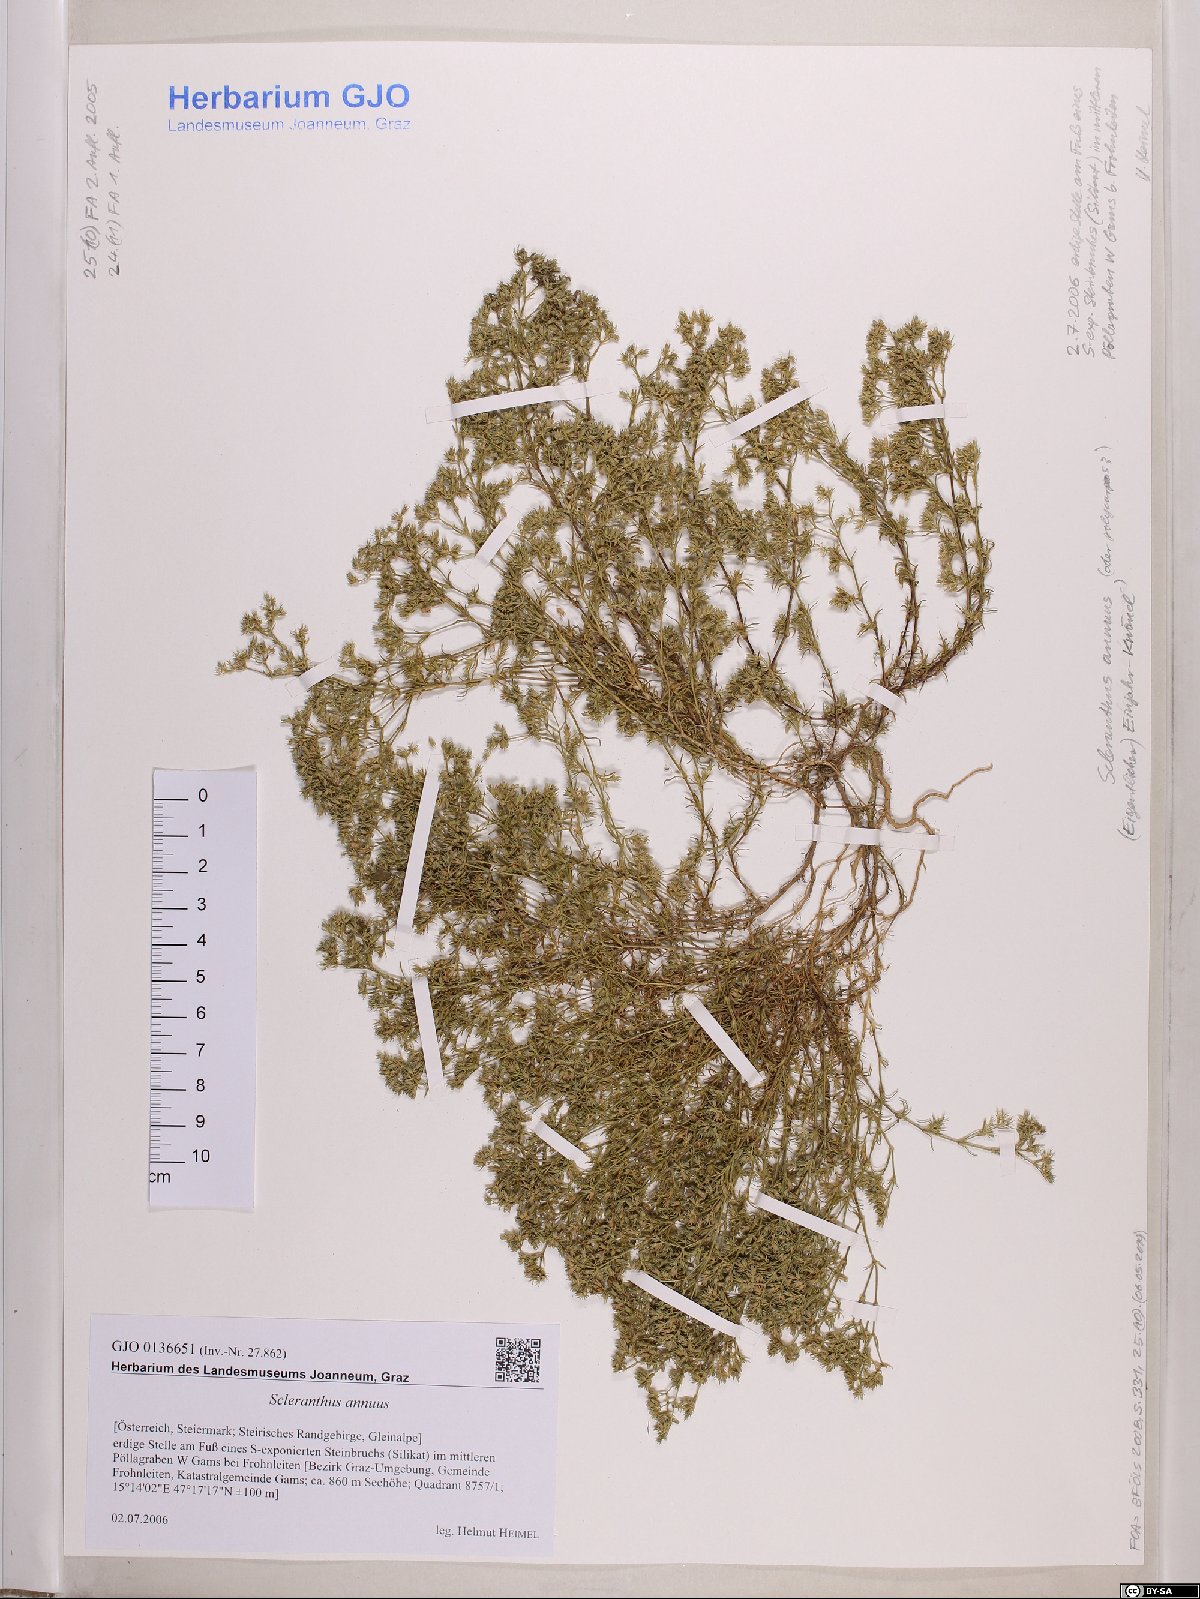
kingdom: Plantae
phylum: Tracheophyta
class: Magnoliopsida
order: Caryophyllales
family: Caryophyllaceae
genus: Scleranthus
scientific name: Scleranthus annuus
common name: Annual knawel
